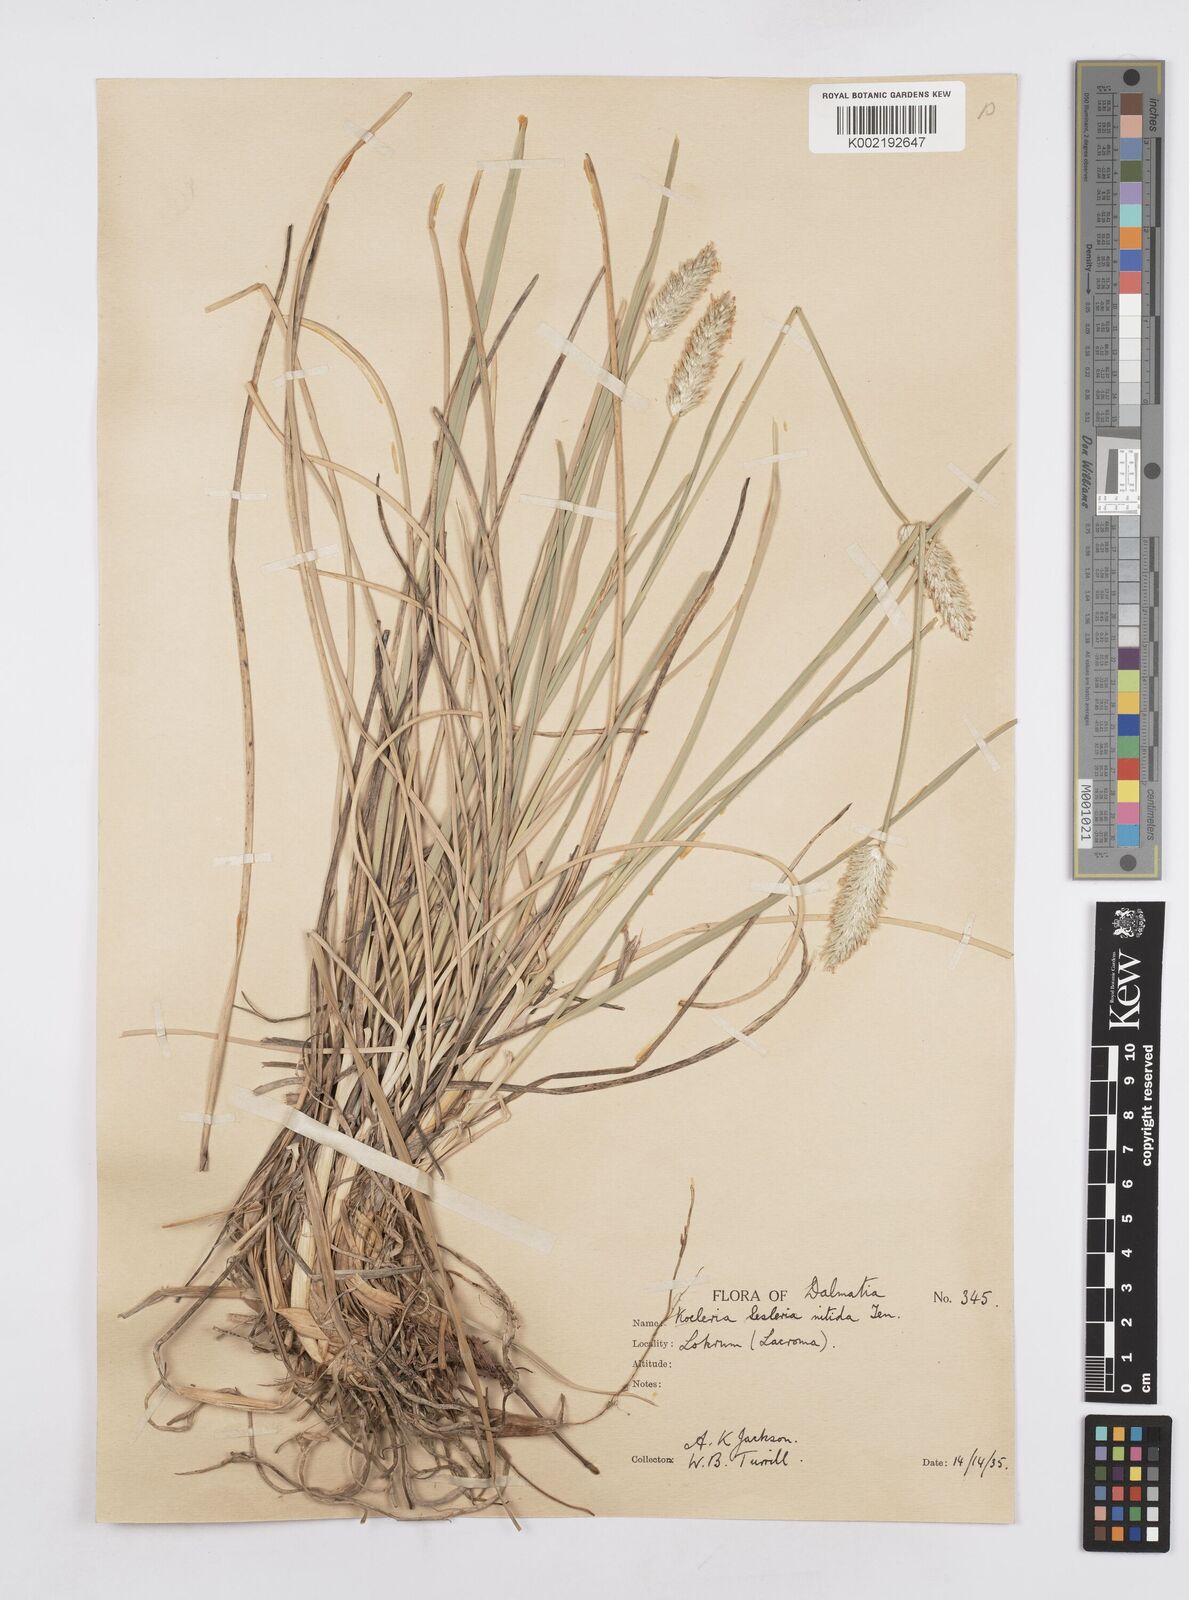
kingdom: Plantae
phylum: Tracheophyta
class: Liliopsida
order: Poales
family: Poaceae
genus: Sesleria
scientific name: Sesleria robusta
